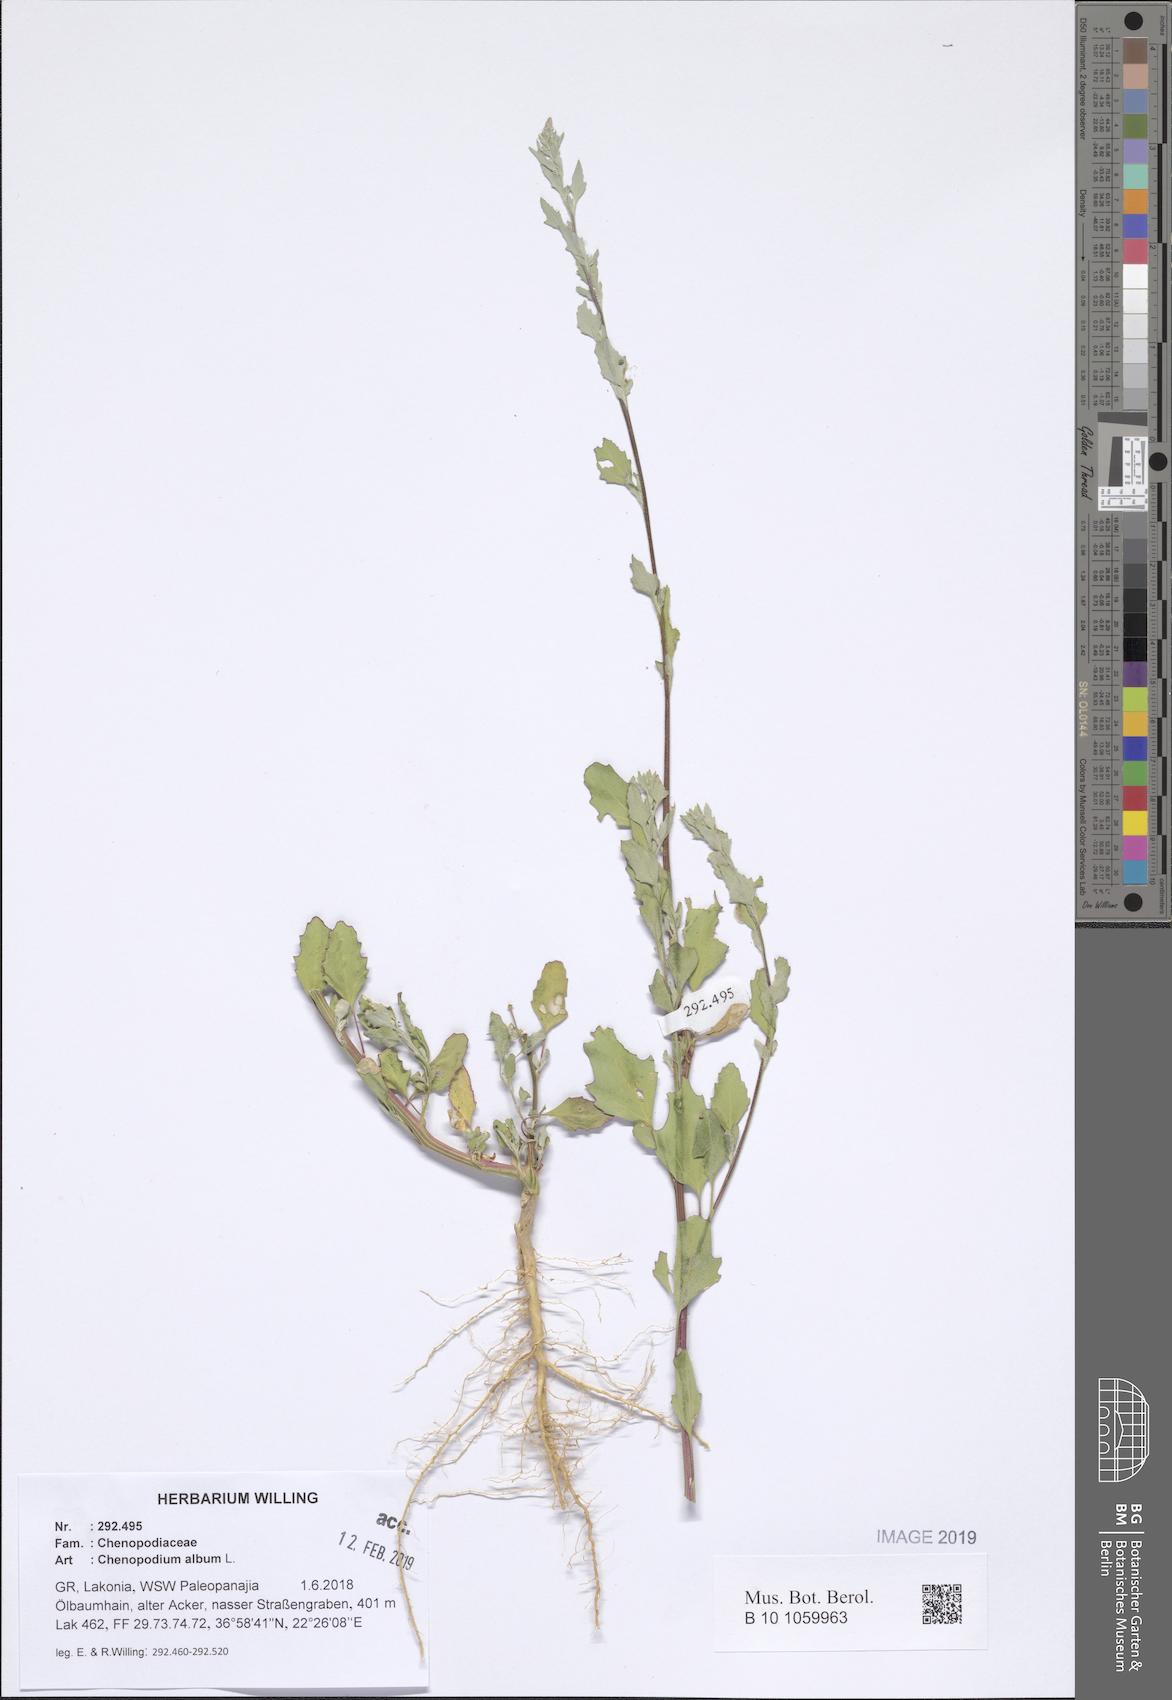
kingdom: Plantae
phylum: Tracheophyta
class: Magnoliopsida
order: Caryophyllales
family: Amaranthaceae
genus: Chenopodium
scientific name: Chenopodium album
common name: Fat-hen
